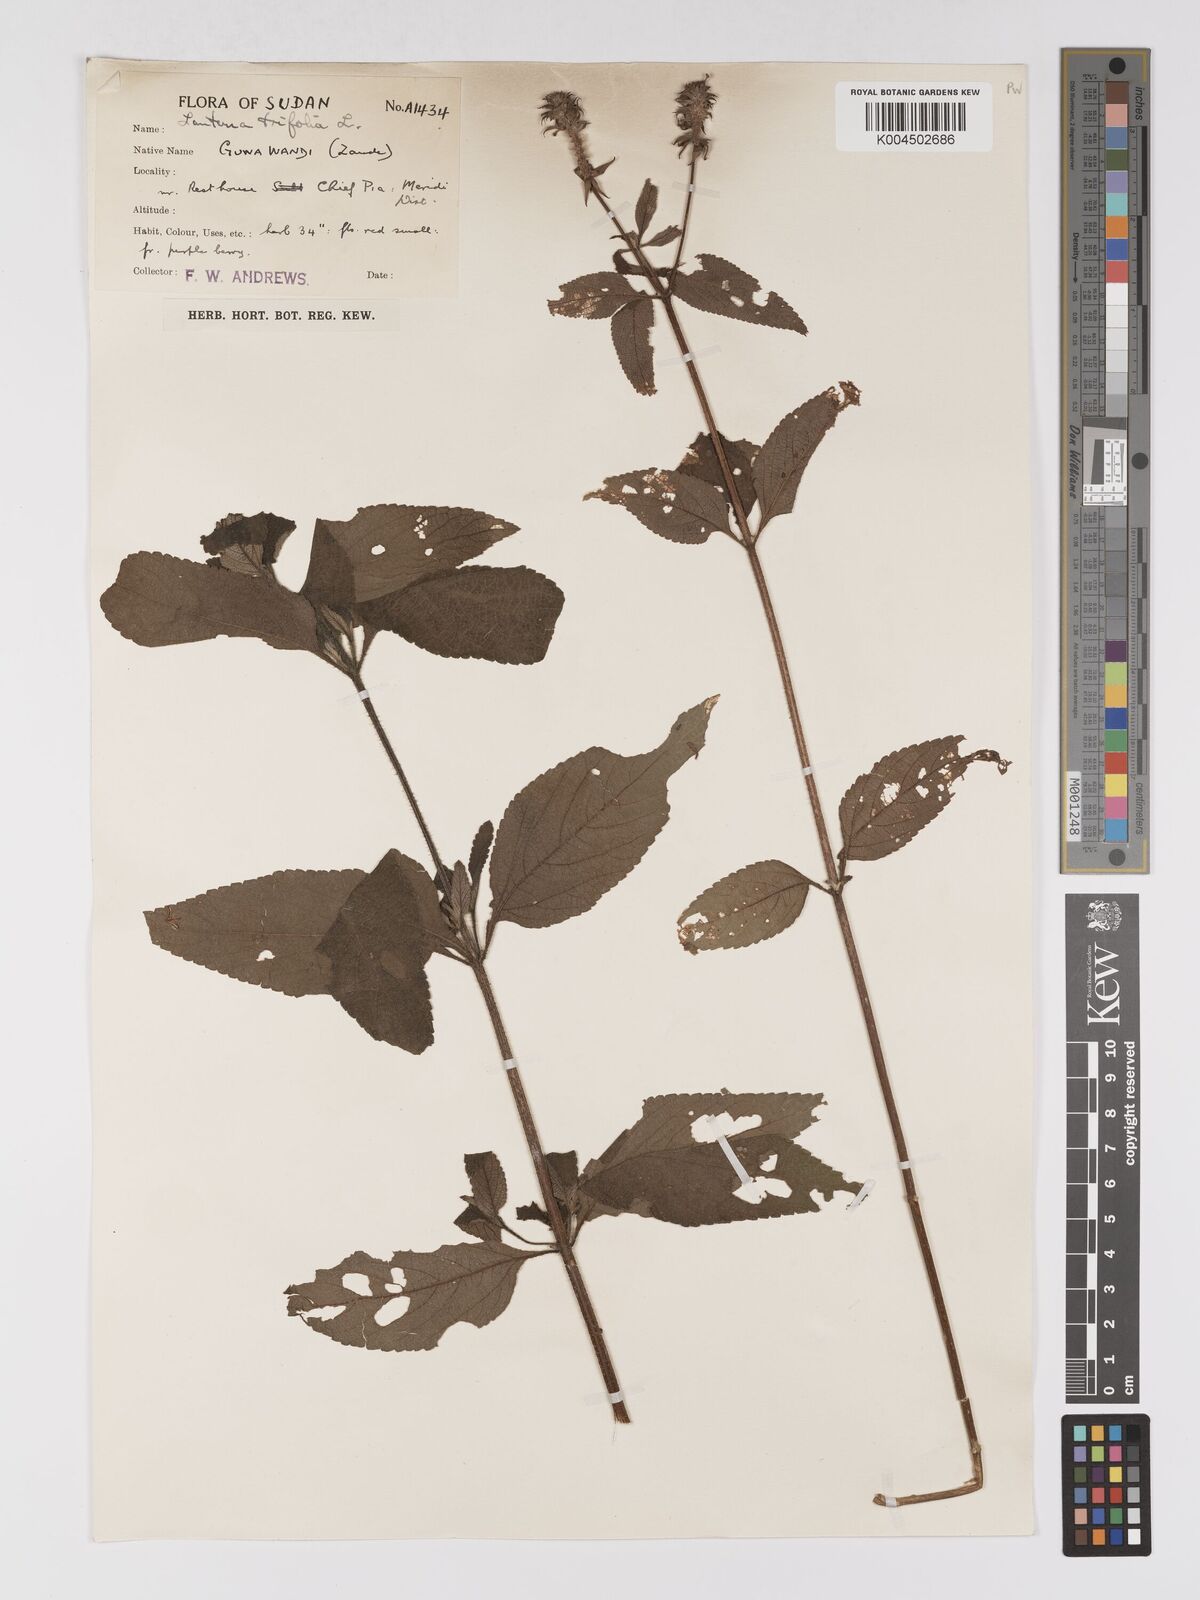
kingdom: Plantae
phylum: Tracheophyta
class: Magnoliopsida
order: Lamiales
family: Verbenaceae
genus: Lantana
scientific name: Lantana trifolia
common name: Sweet-sage
